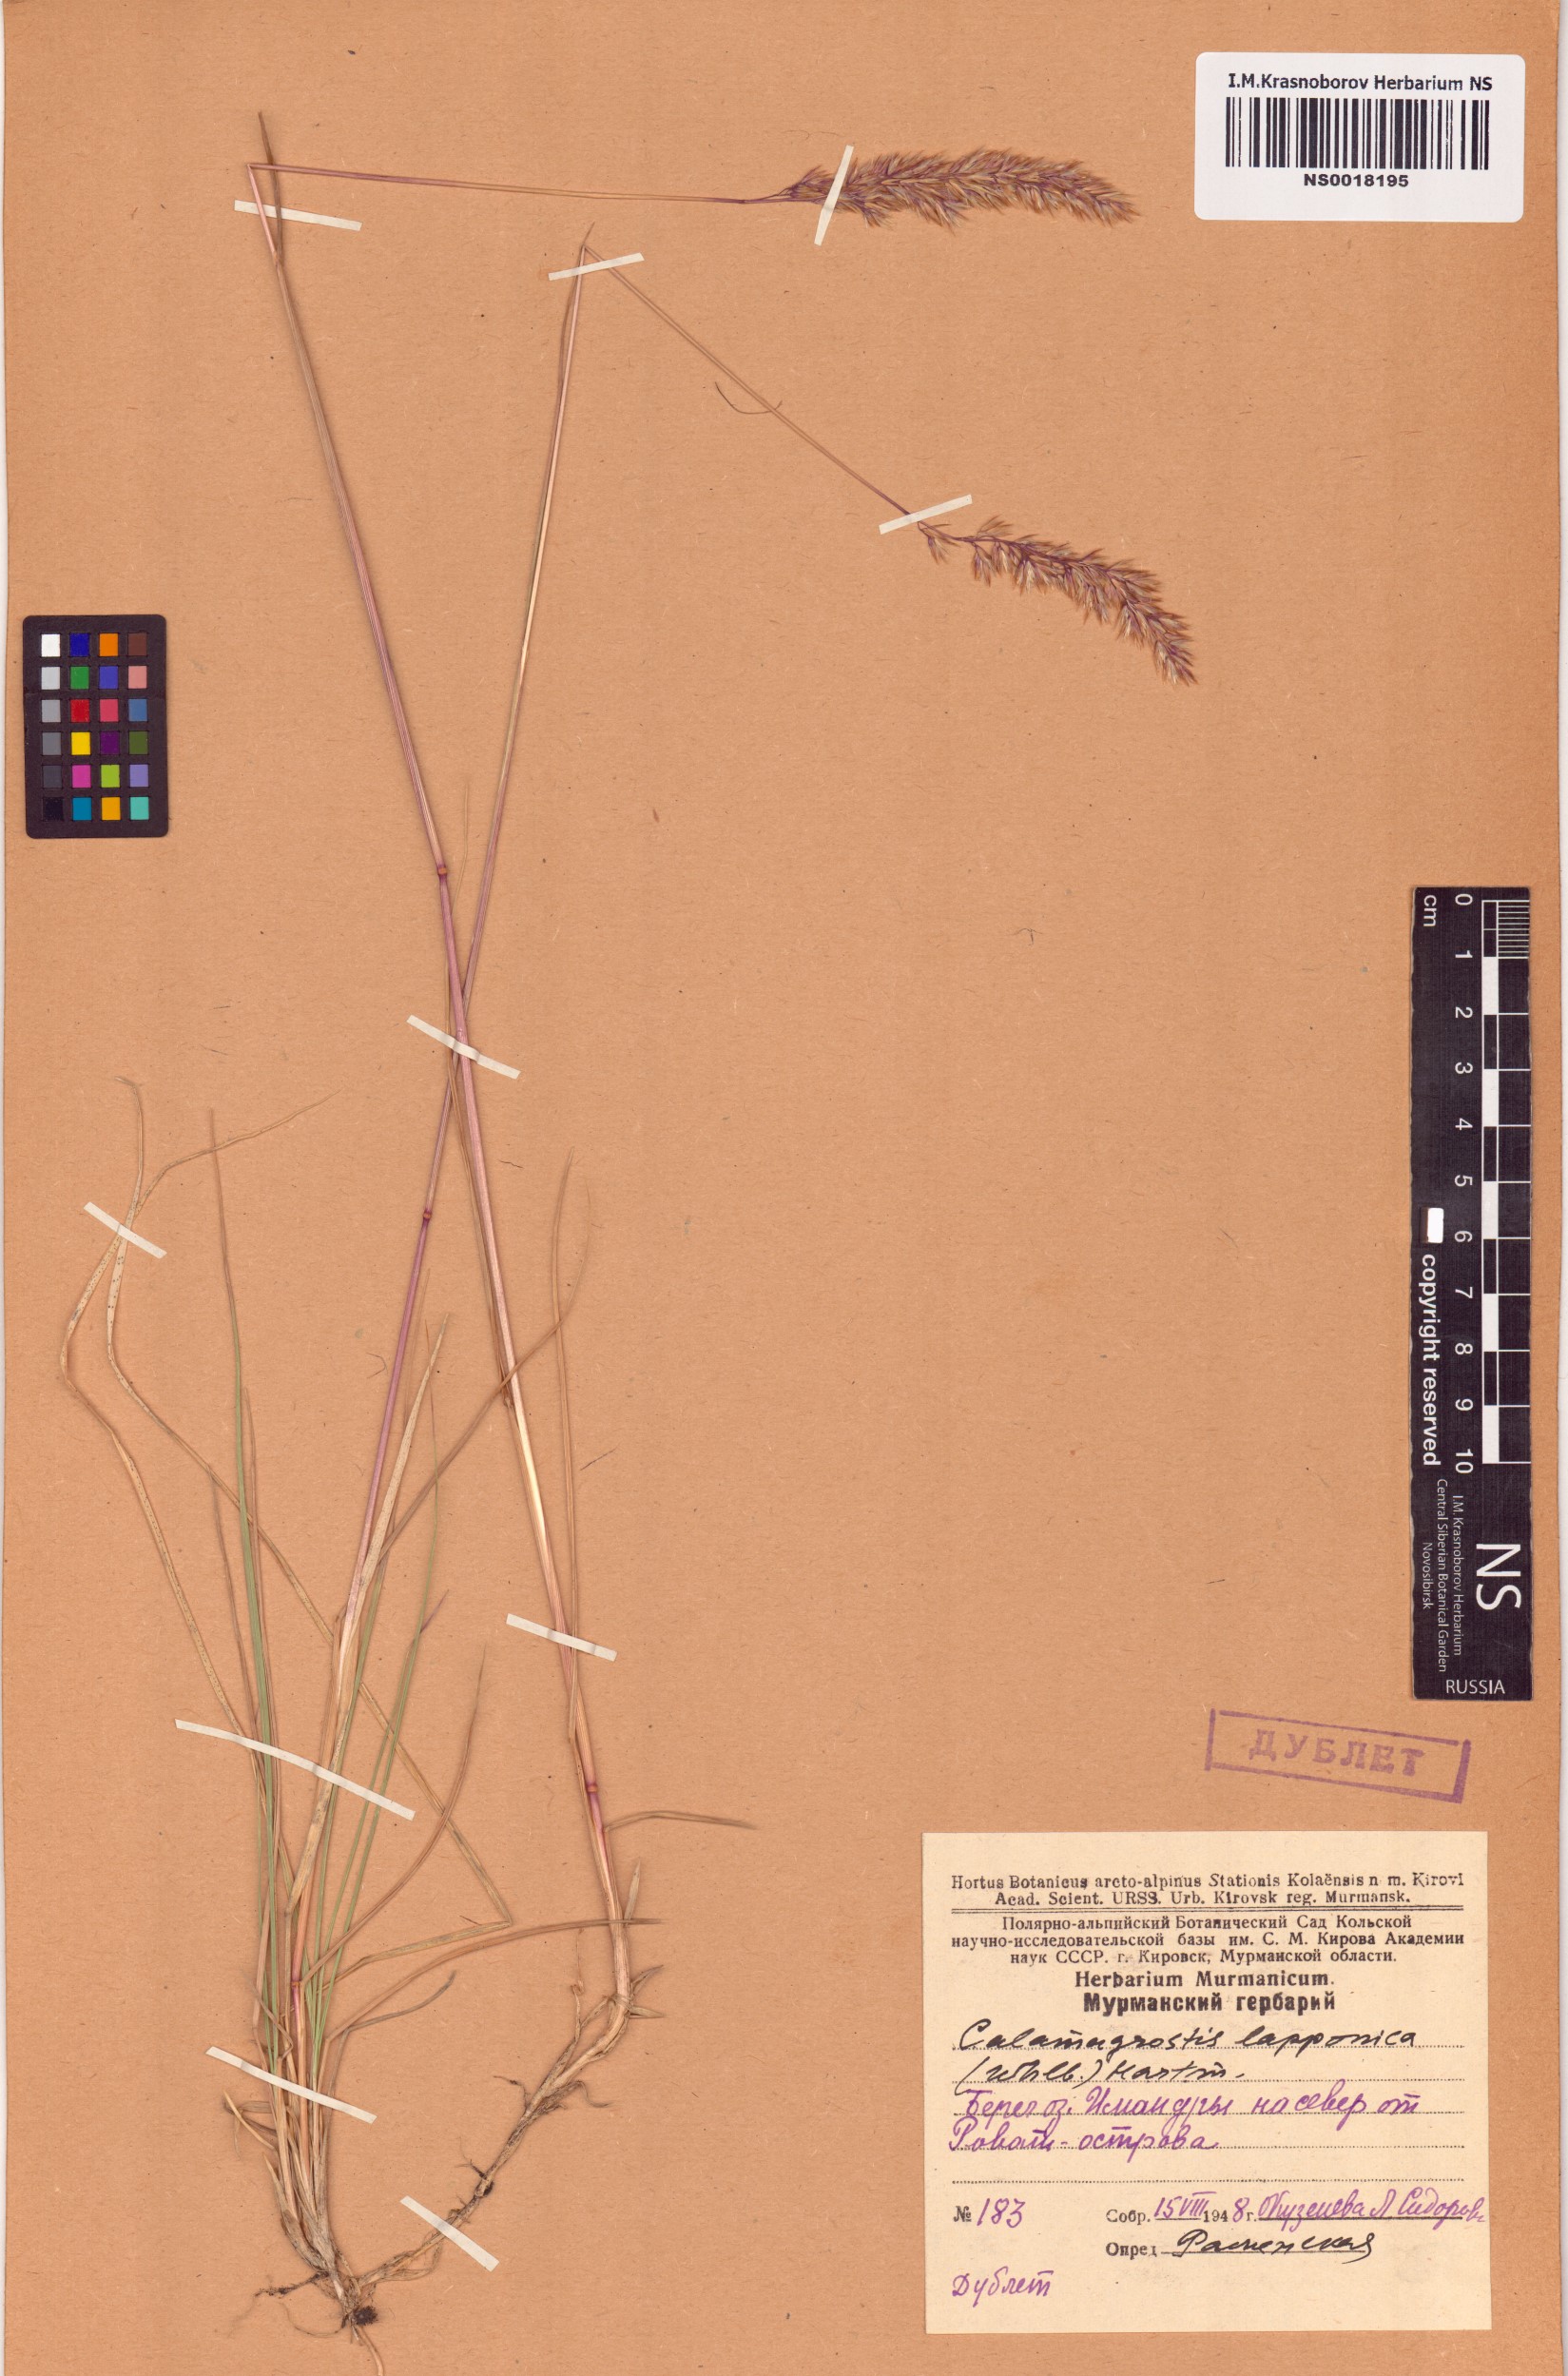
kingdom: Plantae
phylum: Tracheophyta
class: Liliopsida
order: Poales
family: Poaceae
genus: Calamagrostis
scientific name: Calamagrostis lapponica
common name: Lapland reedgrass
